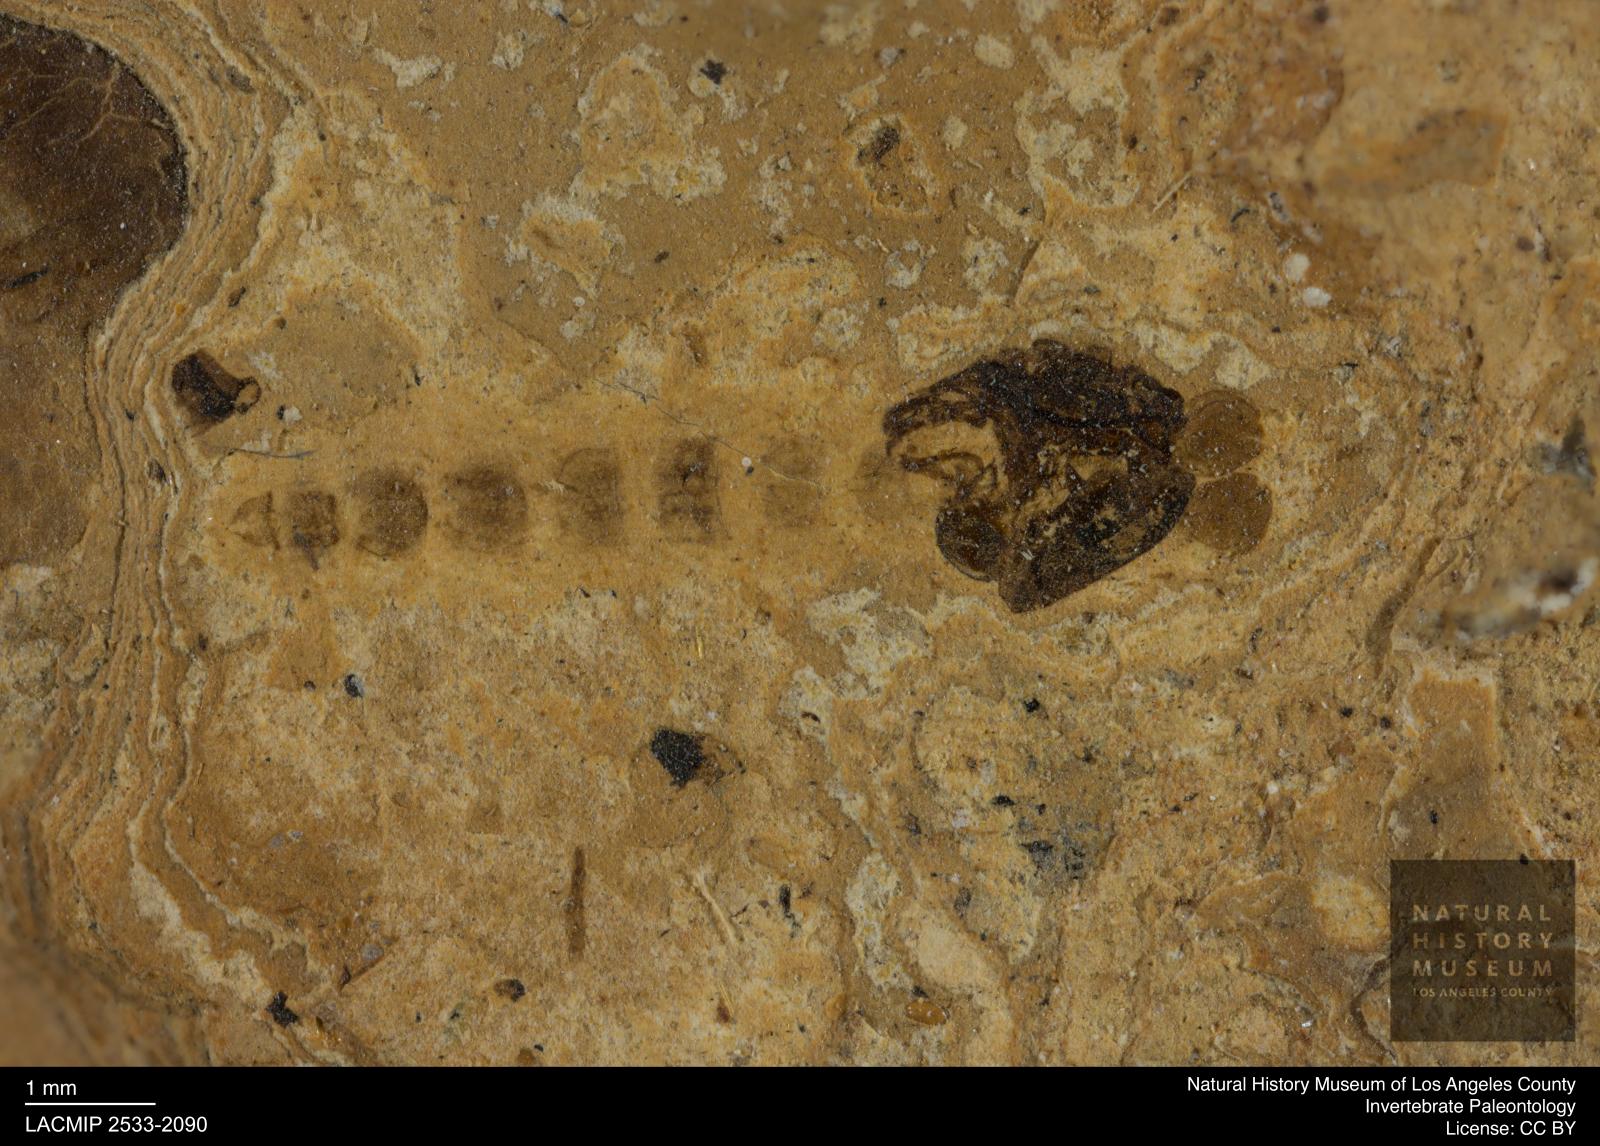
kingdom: Animalia
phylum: Arthropoda
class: Insecta
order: Diptera
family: Chironomidae
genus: Pelopiina
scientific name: Pelopiina
